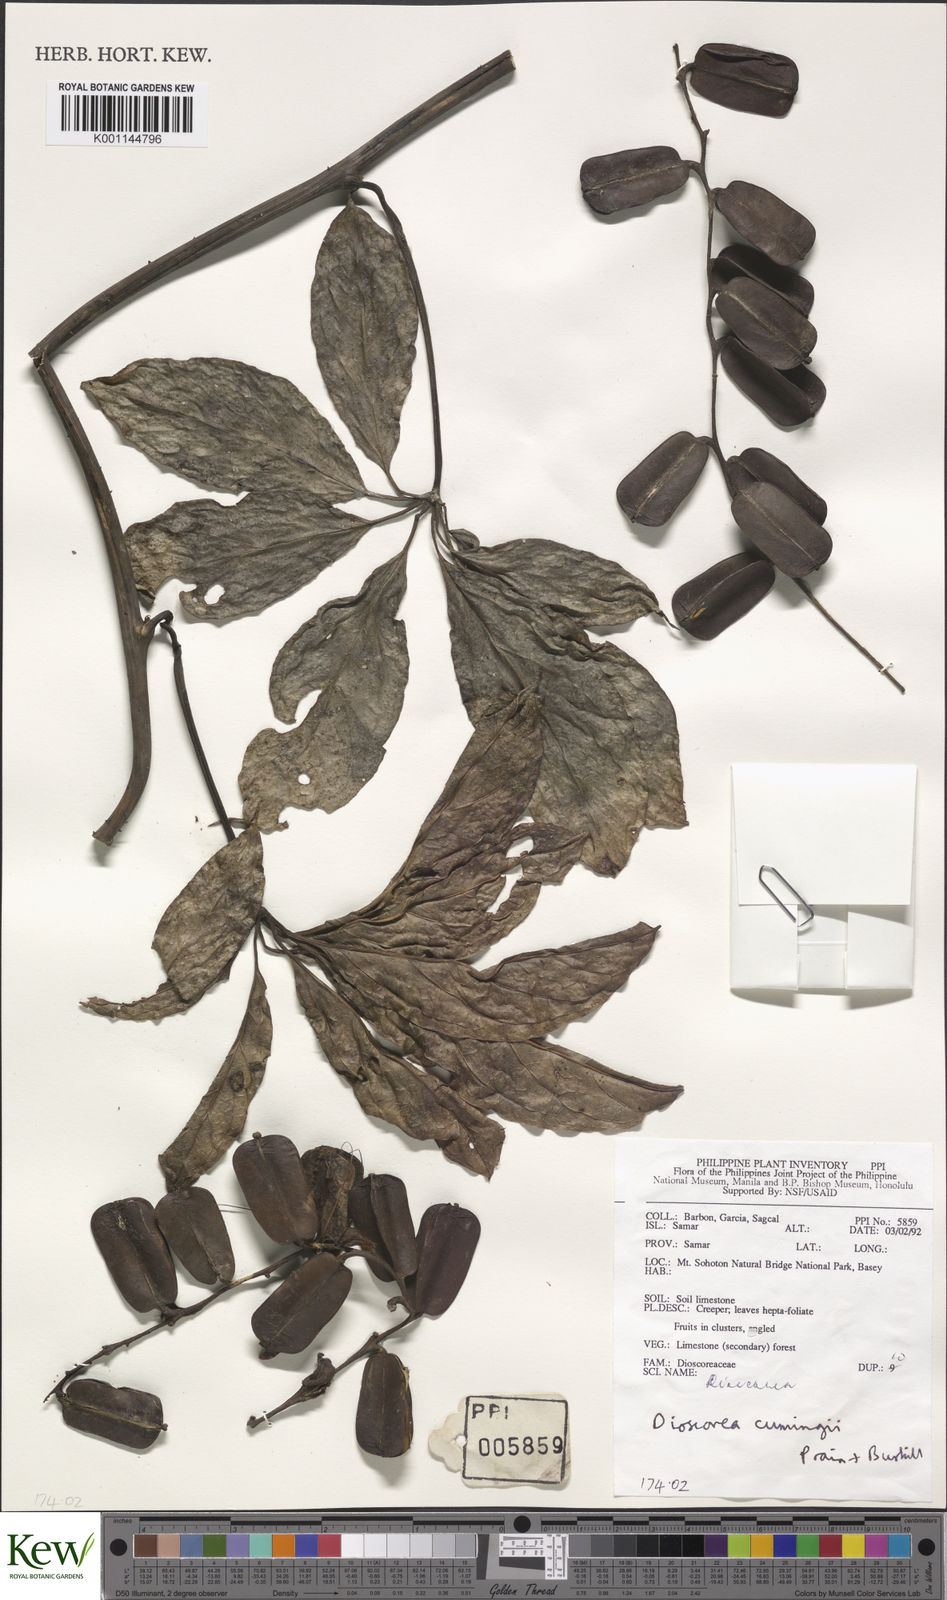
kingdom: Plantae
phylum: Tracheophyta
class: Liliopsida
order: Dioscoreales
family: Dioscoreaceae
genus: Dioscorea
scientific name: Dioscorea cumingii
